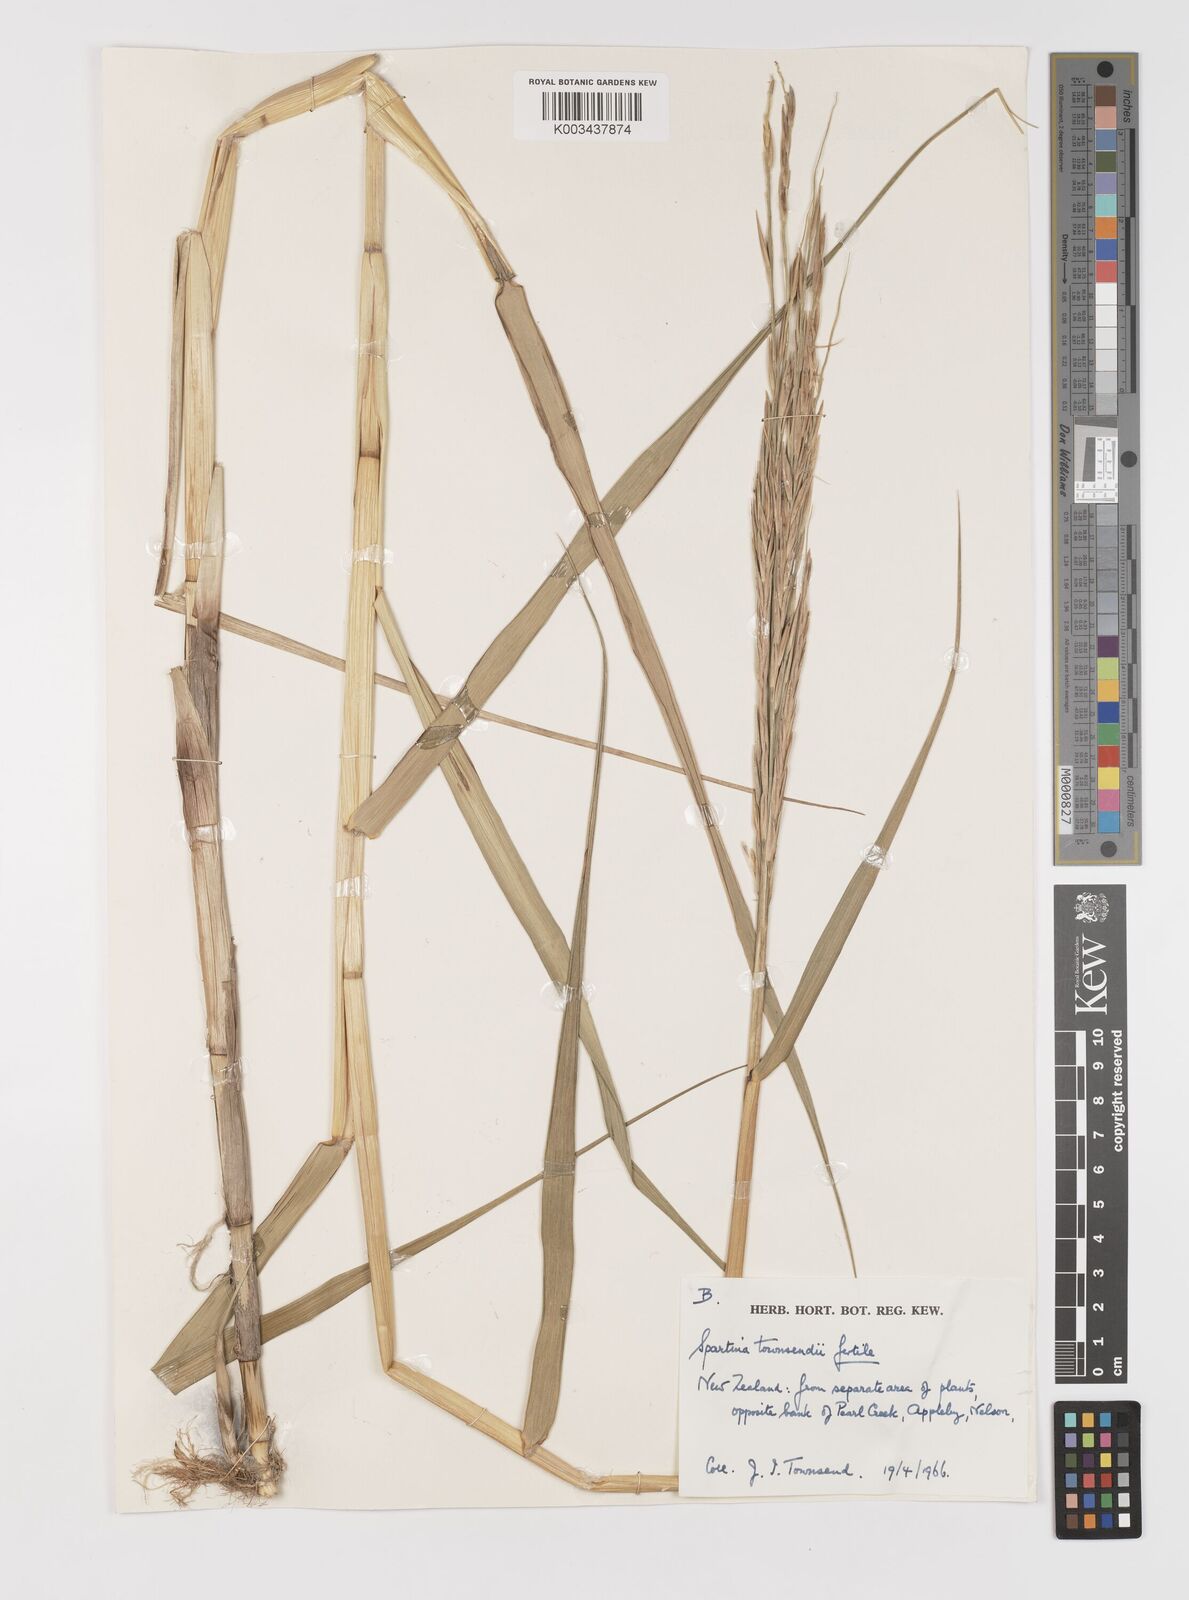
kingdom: Plantae
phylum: Tracheophyta
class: Liliopsida
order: Poales
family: Poaceae
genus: Sporobolus
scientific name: Sporobolus townsendii
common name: Townsend's cordgrass
